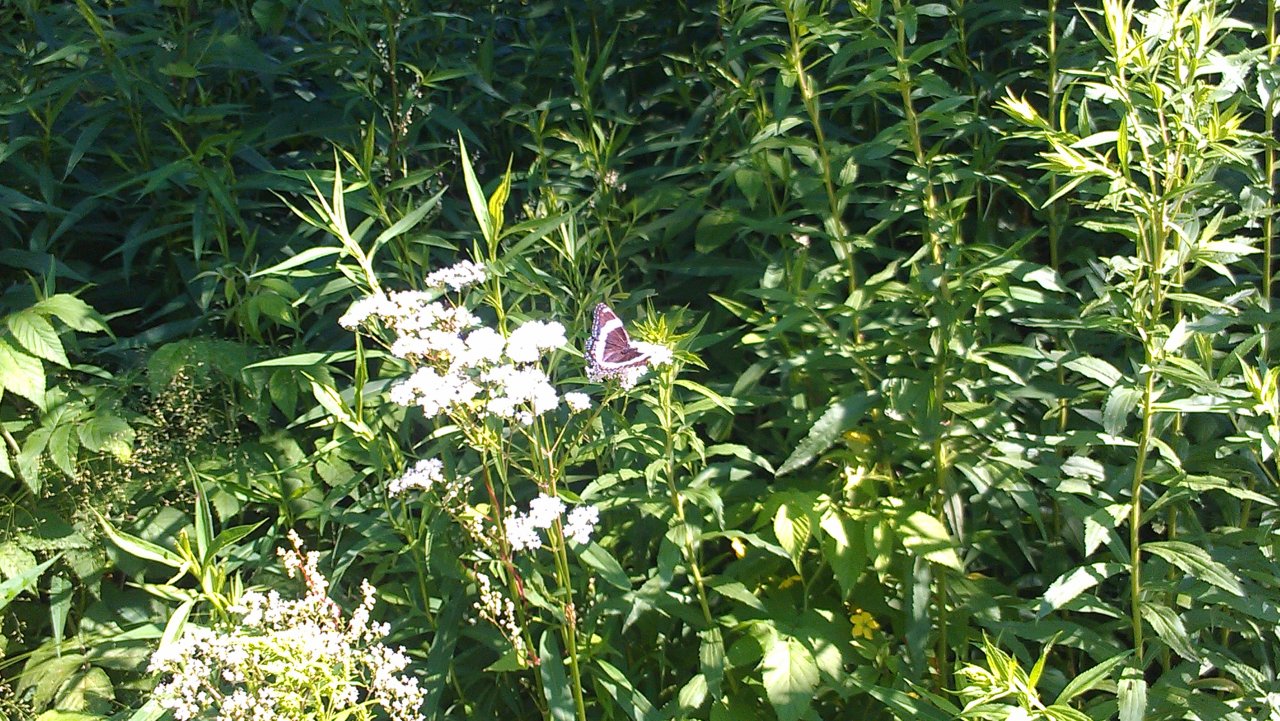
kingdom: Animalia
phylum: Arthropoda
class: Insecta
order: Lepidoptera
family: Nymphalidae
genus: Limenitis
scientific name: Limenitis arthemis
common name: Red-spotted Admiral
